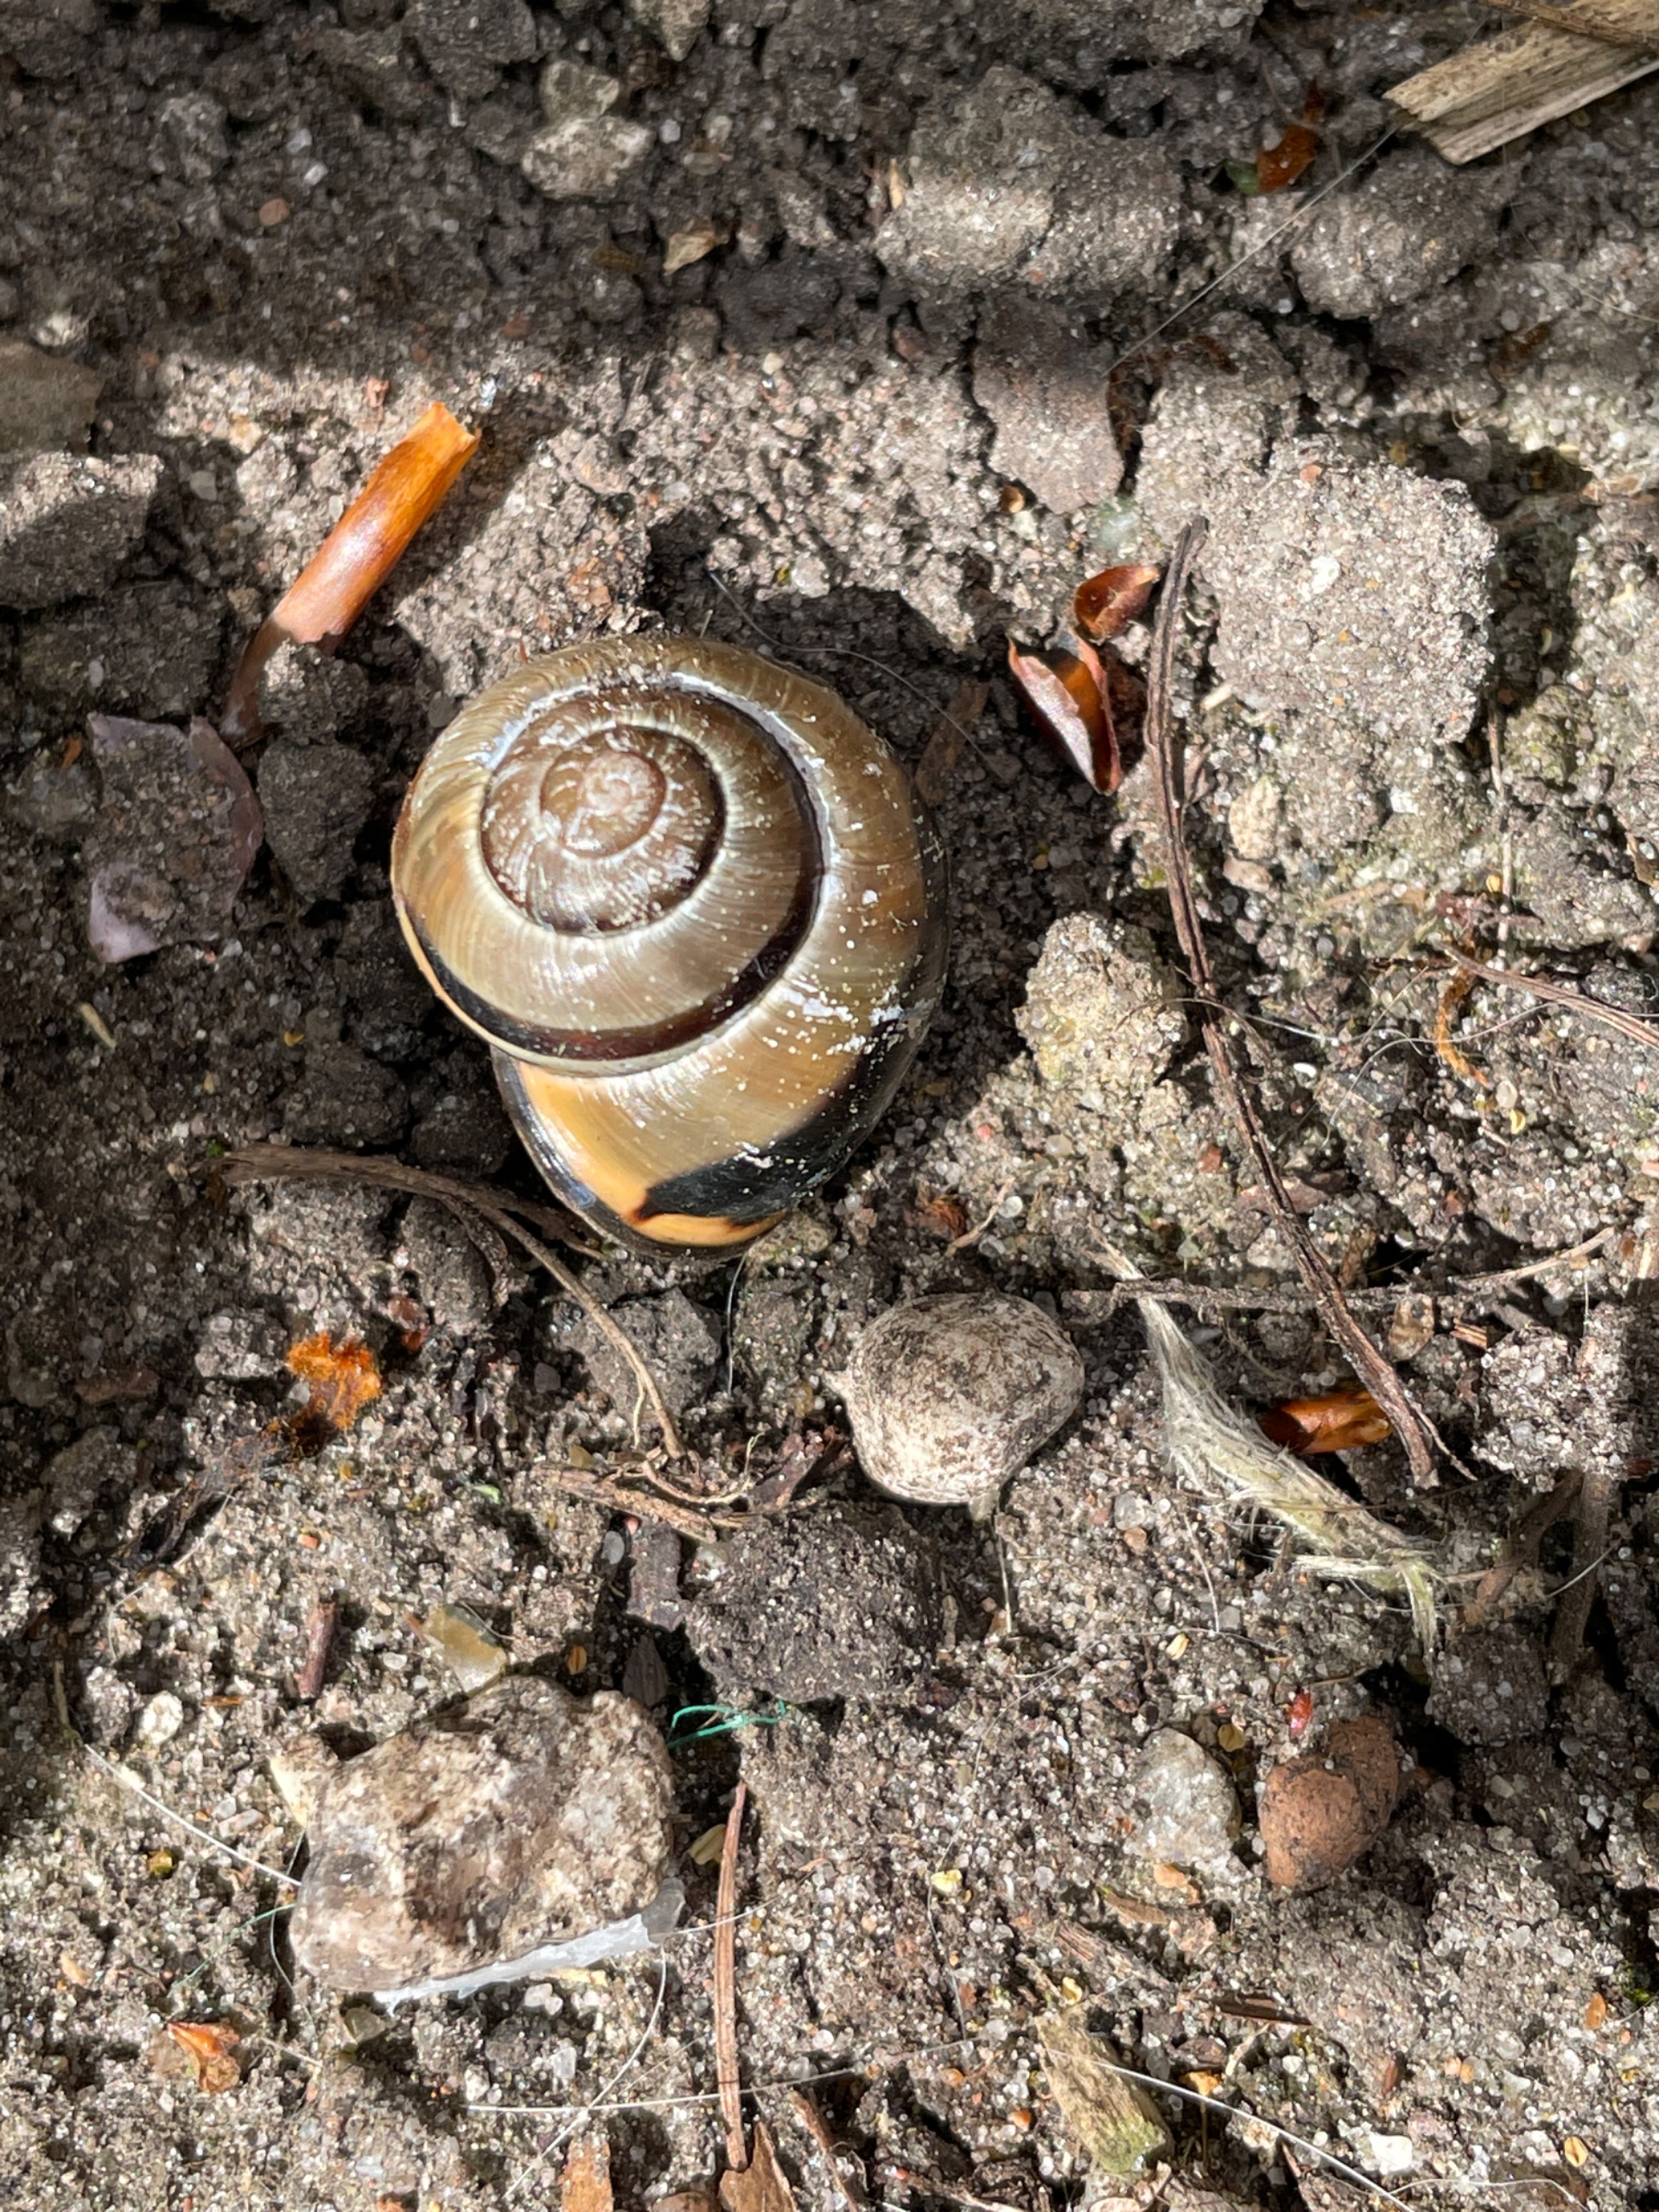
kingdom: Animalia
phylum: Mollusca
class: Gastropoda
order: Stylommatophora
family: Helicidae
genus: Cepaea
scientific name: Cepaea nemoralis
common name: Lundsnegl
